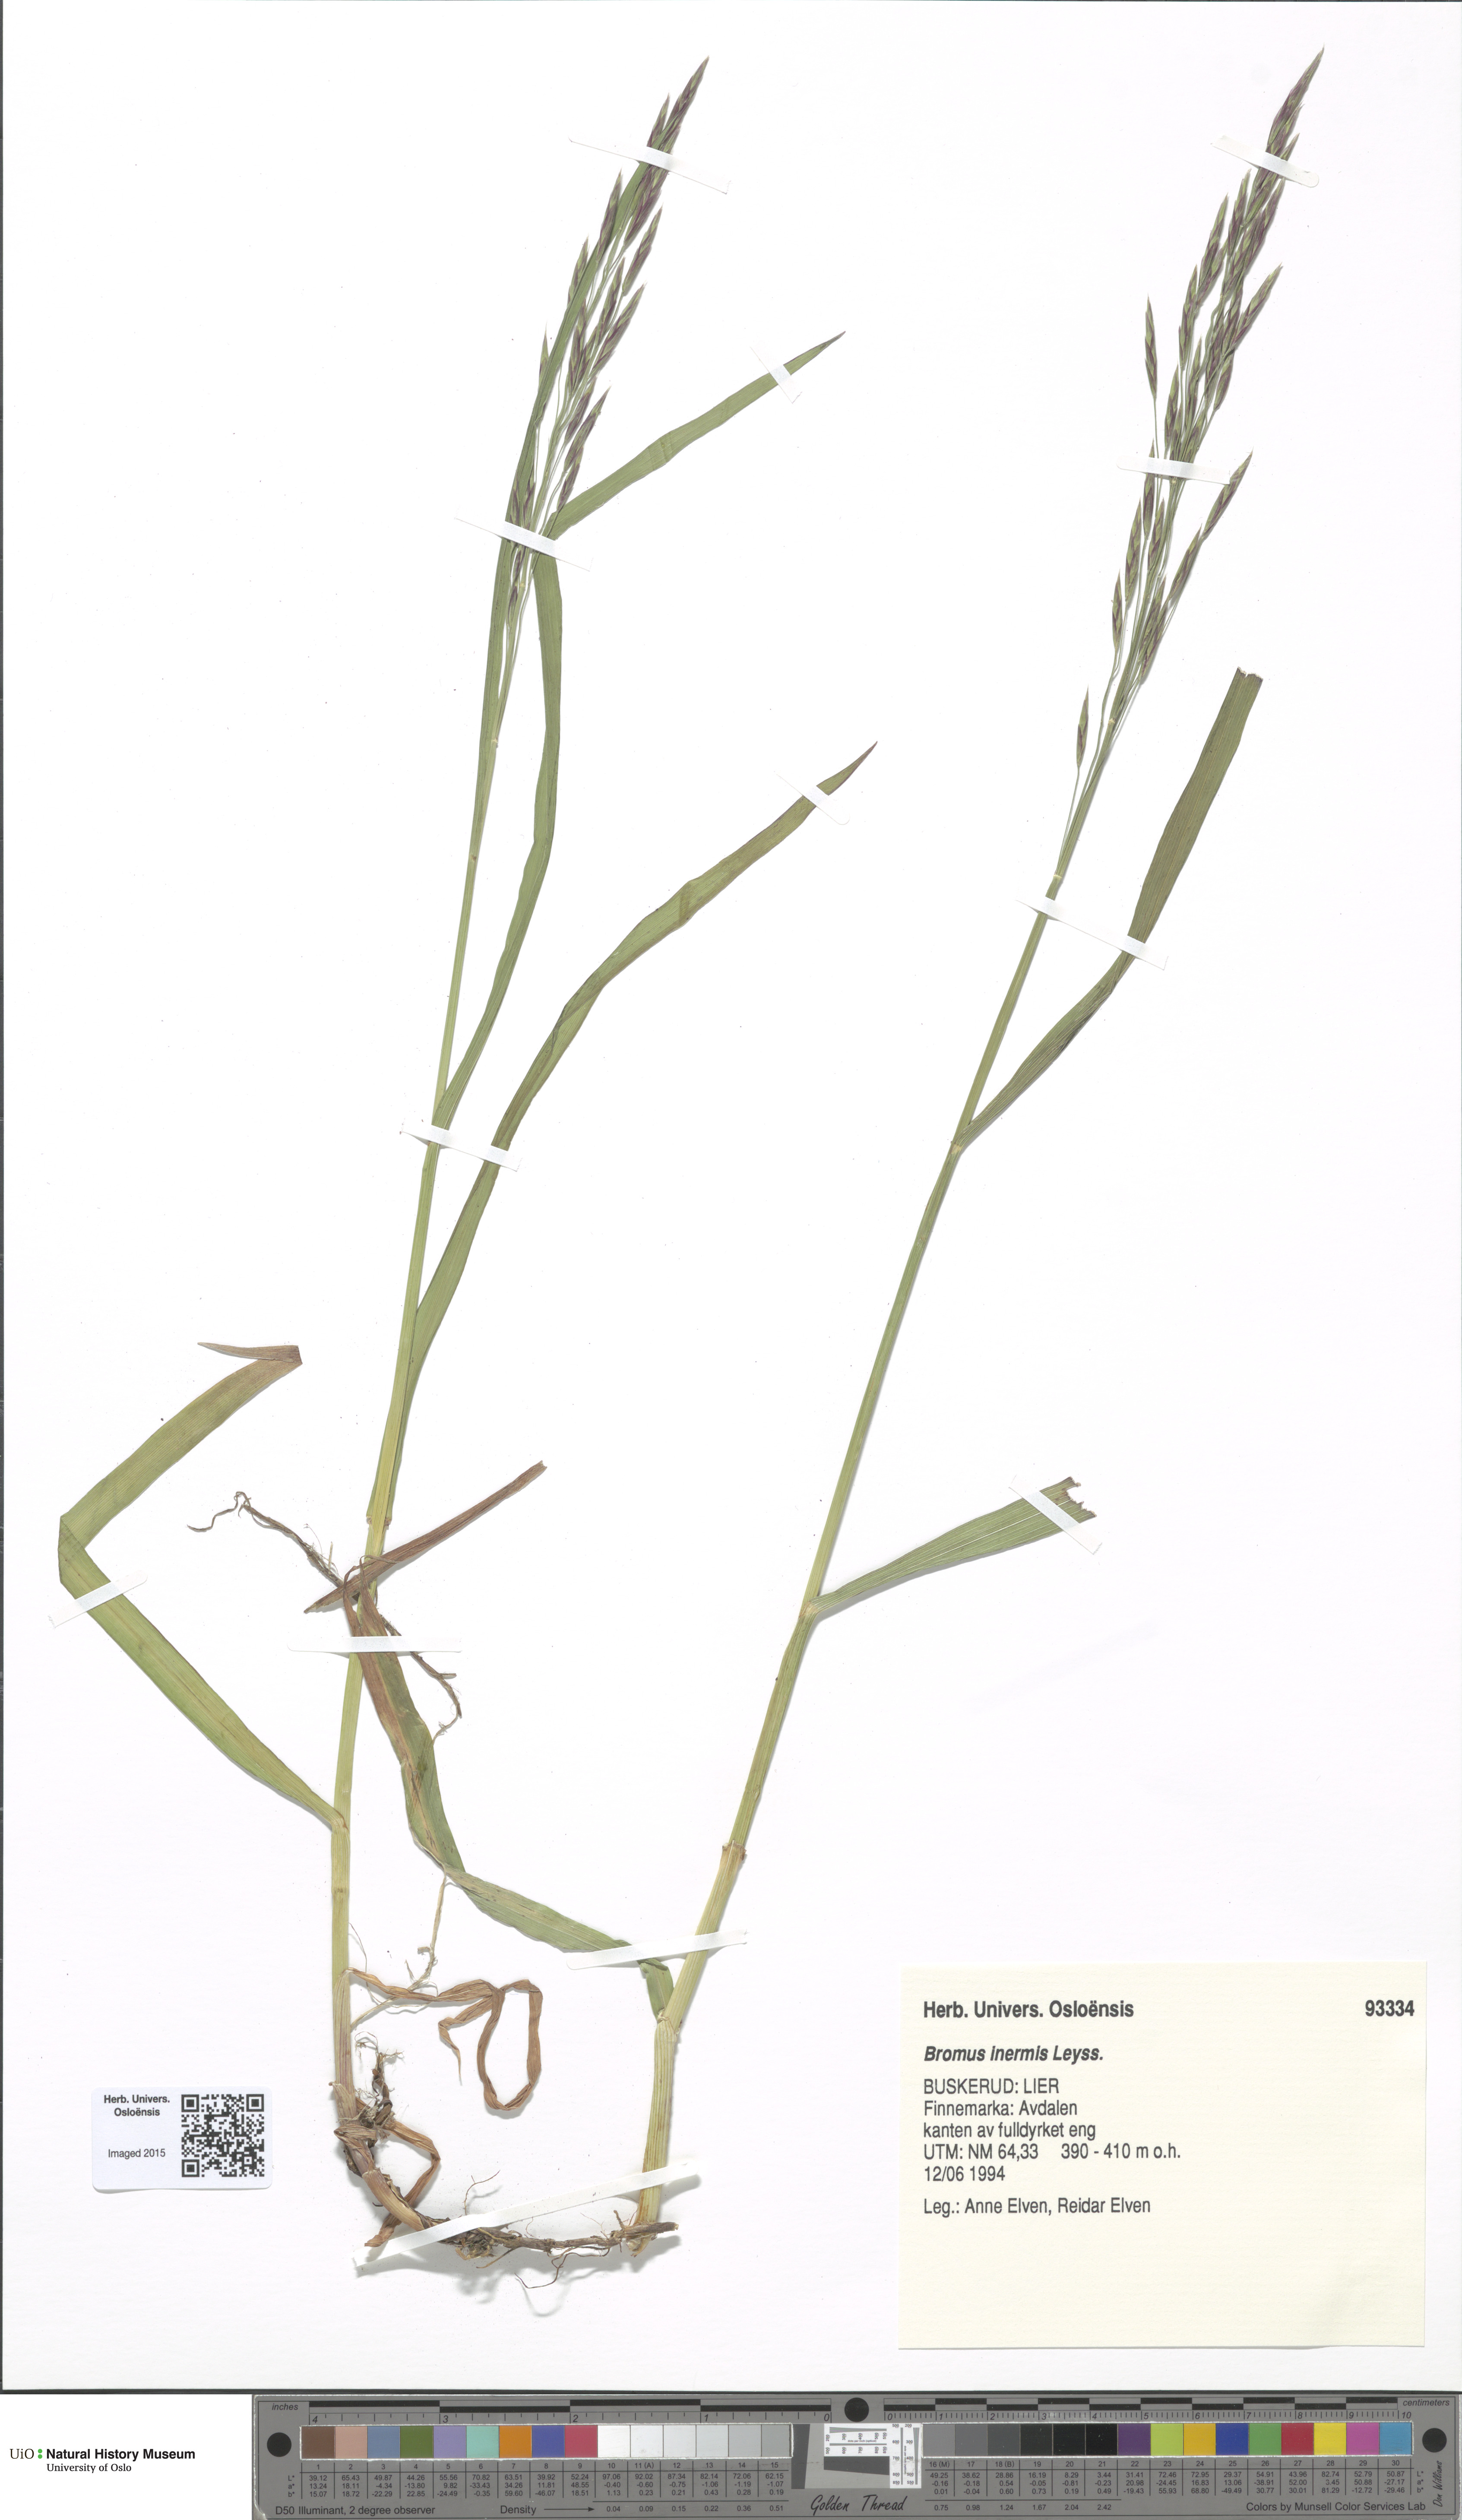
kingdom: Plantae
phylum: Tracheophyta
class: Liliopsida
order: Poales
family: Poaceae
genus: Bromus
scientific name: Bromus inermis
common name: Smooth brome
